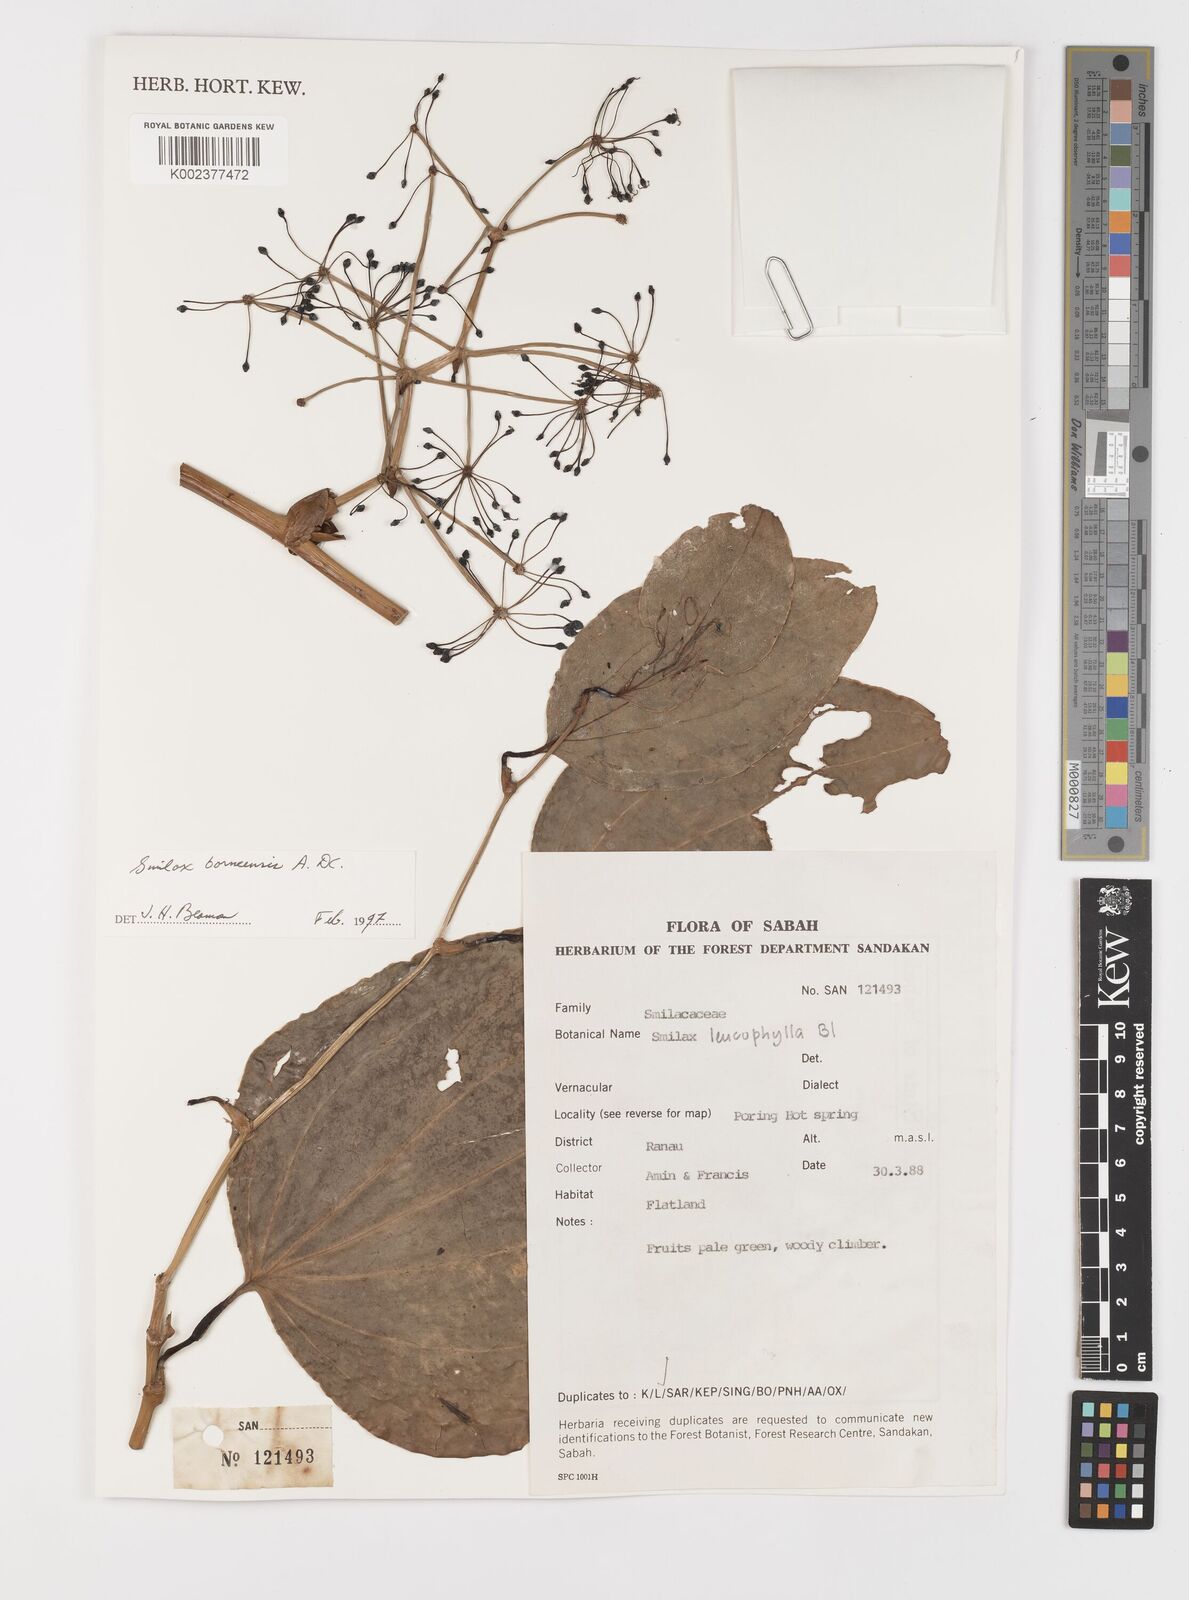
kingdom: Plantae
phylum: Tracheophyta
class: Liliopsida
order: Liliales
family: Smilacaceae
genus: Smilax
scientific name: Smilax borneensis
